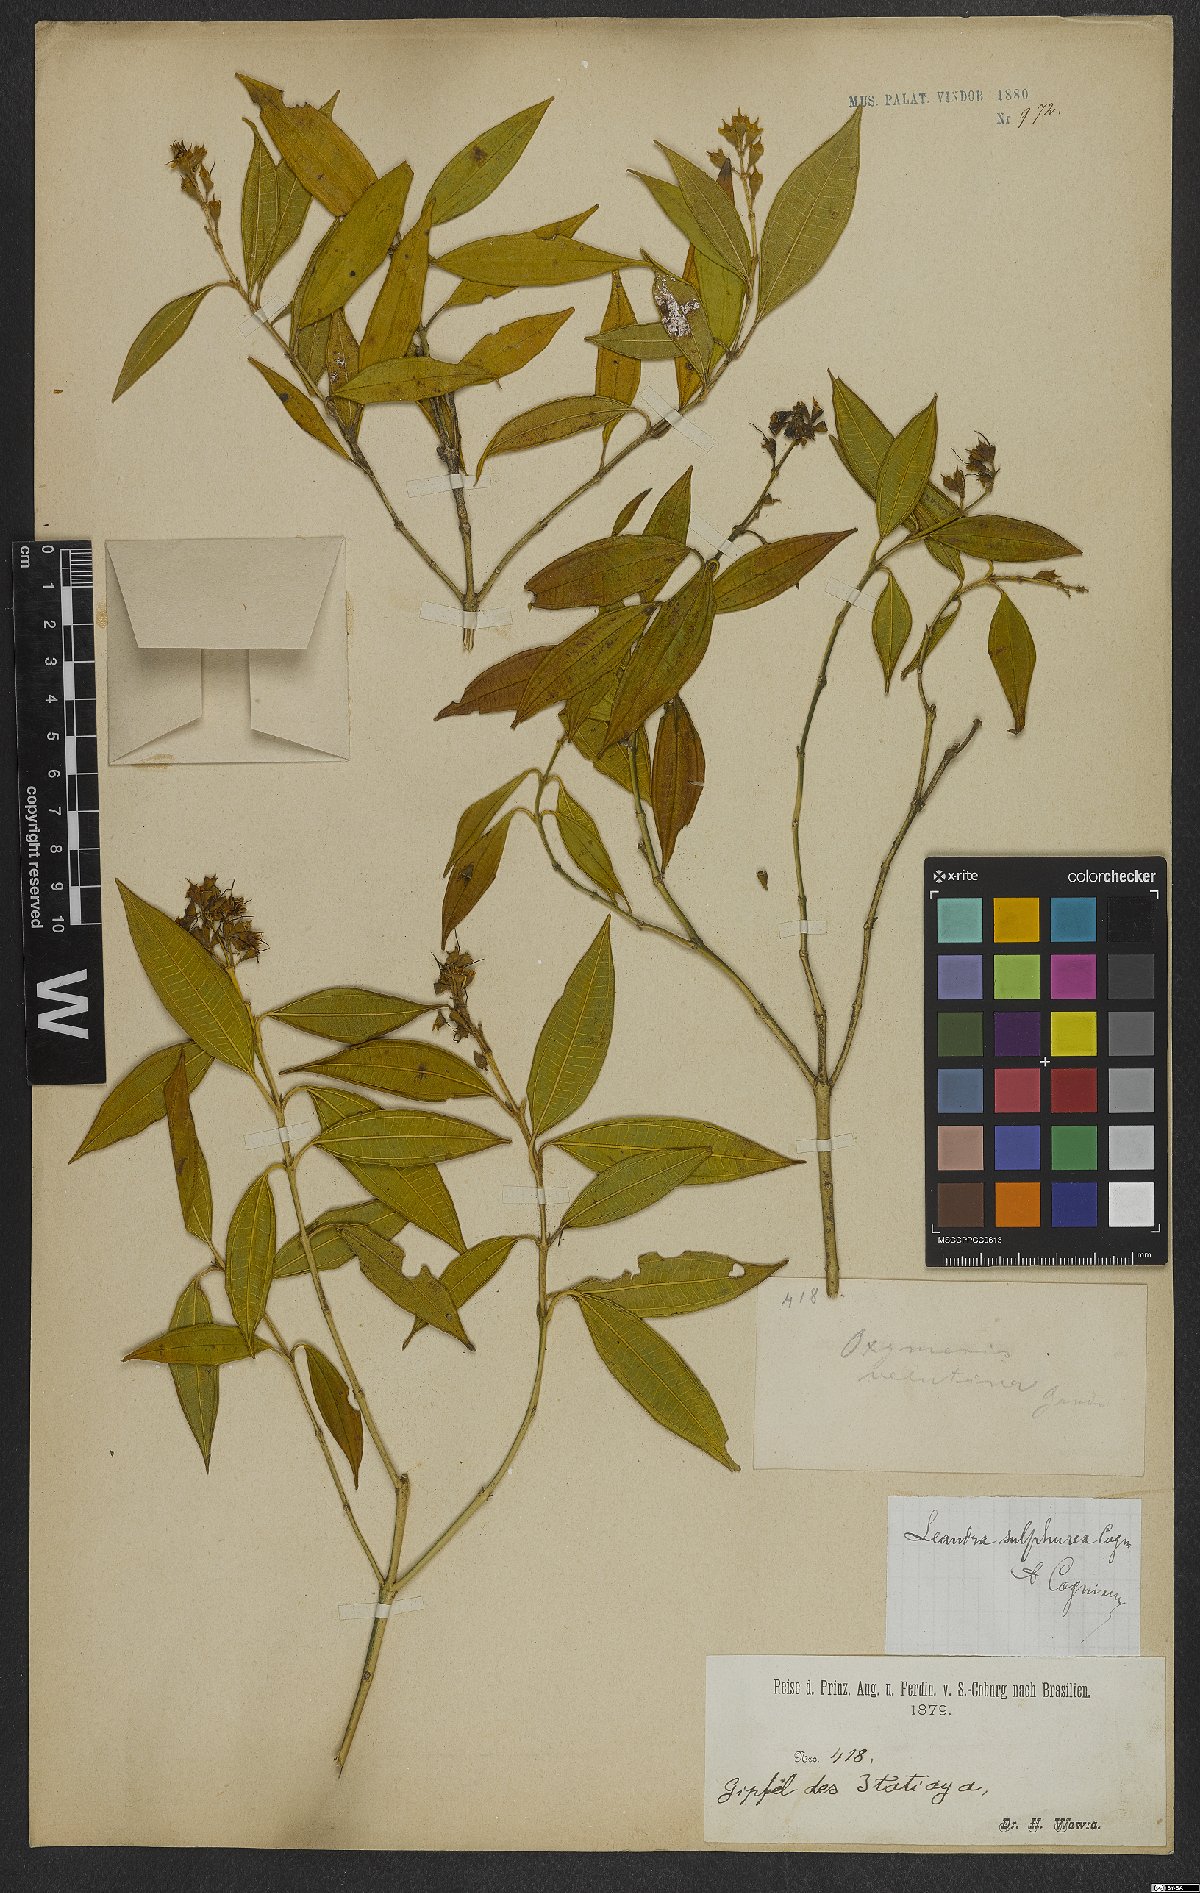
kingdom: Plantae
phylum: Tracheophyta
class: Magnoliopsida
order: Myrtales
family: Melastomataceae
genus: Miconia
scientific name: Miconia sulfurea
